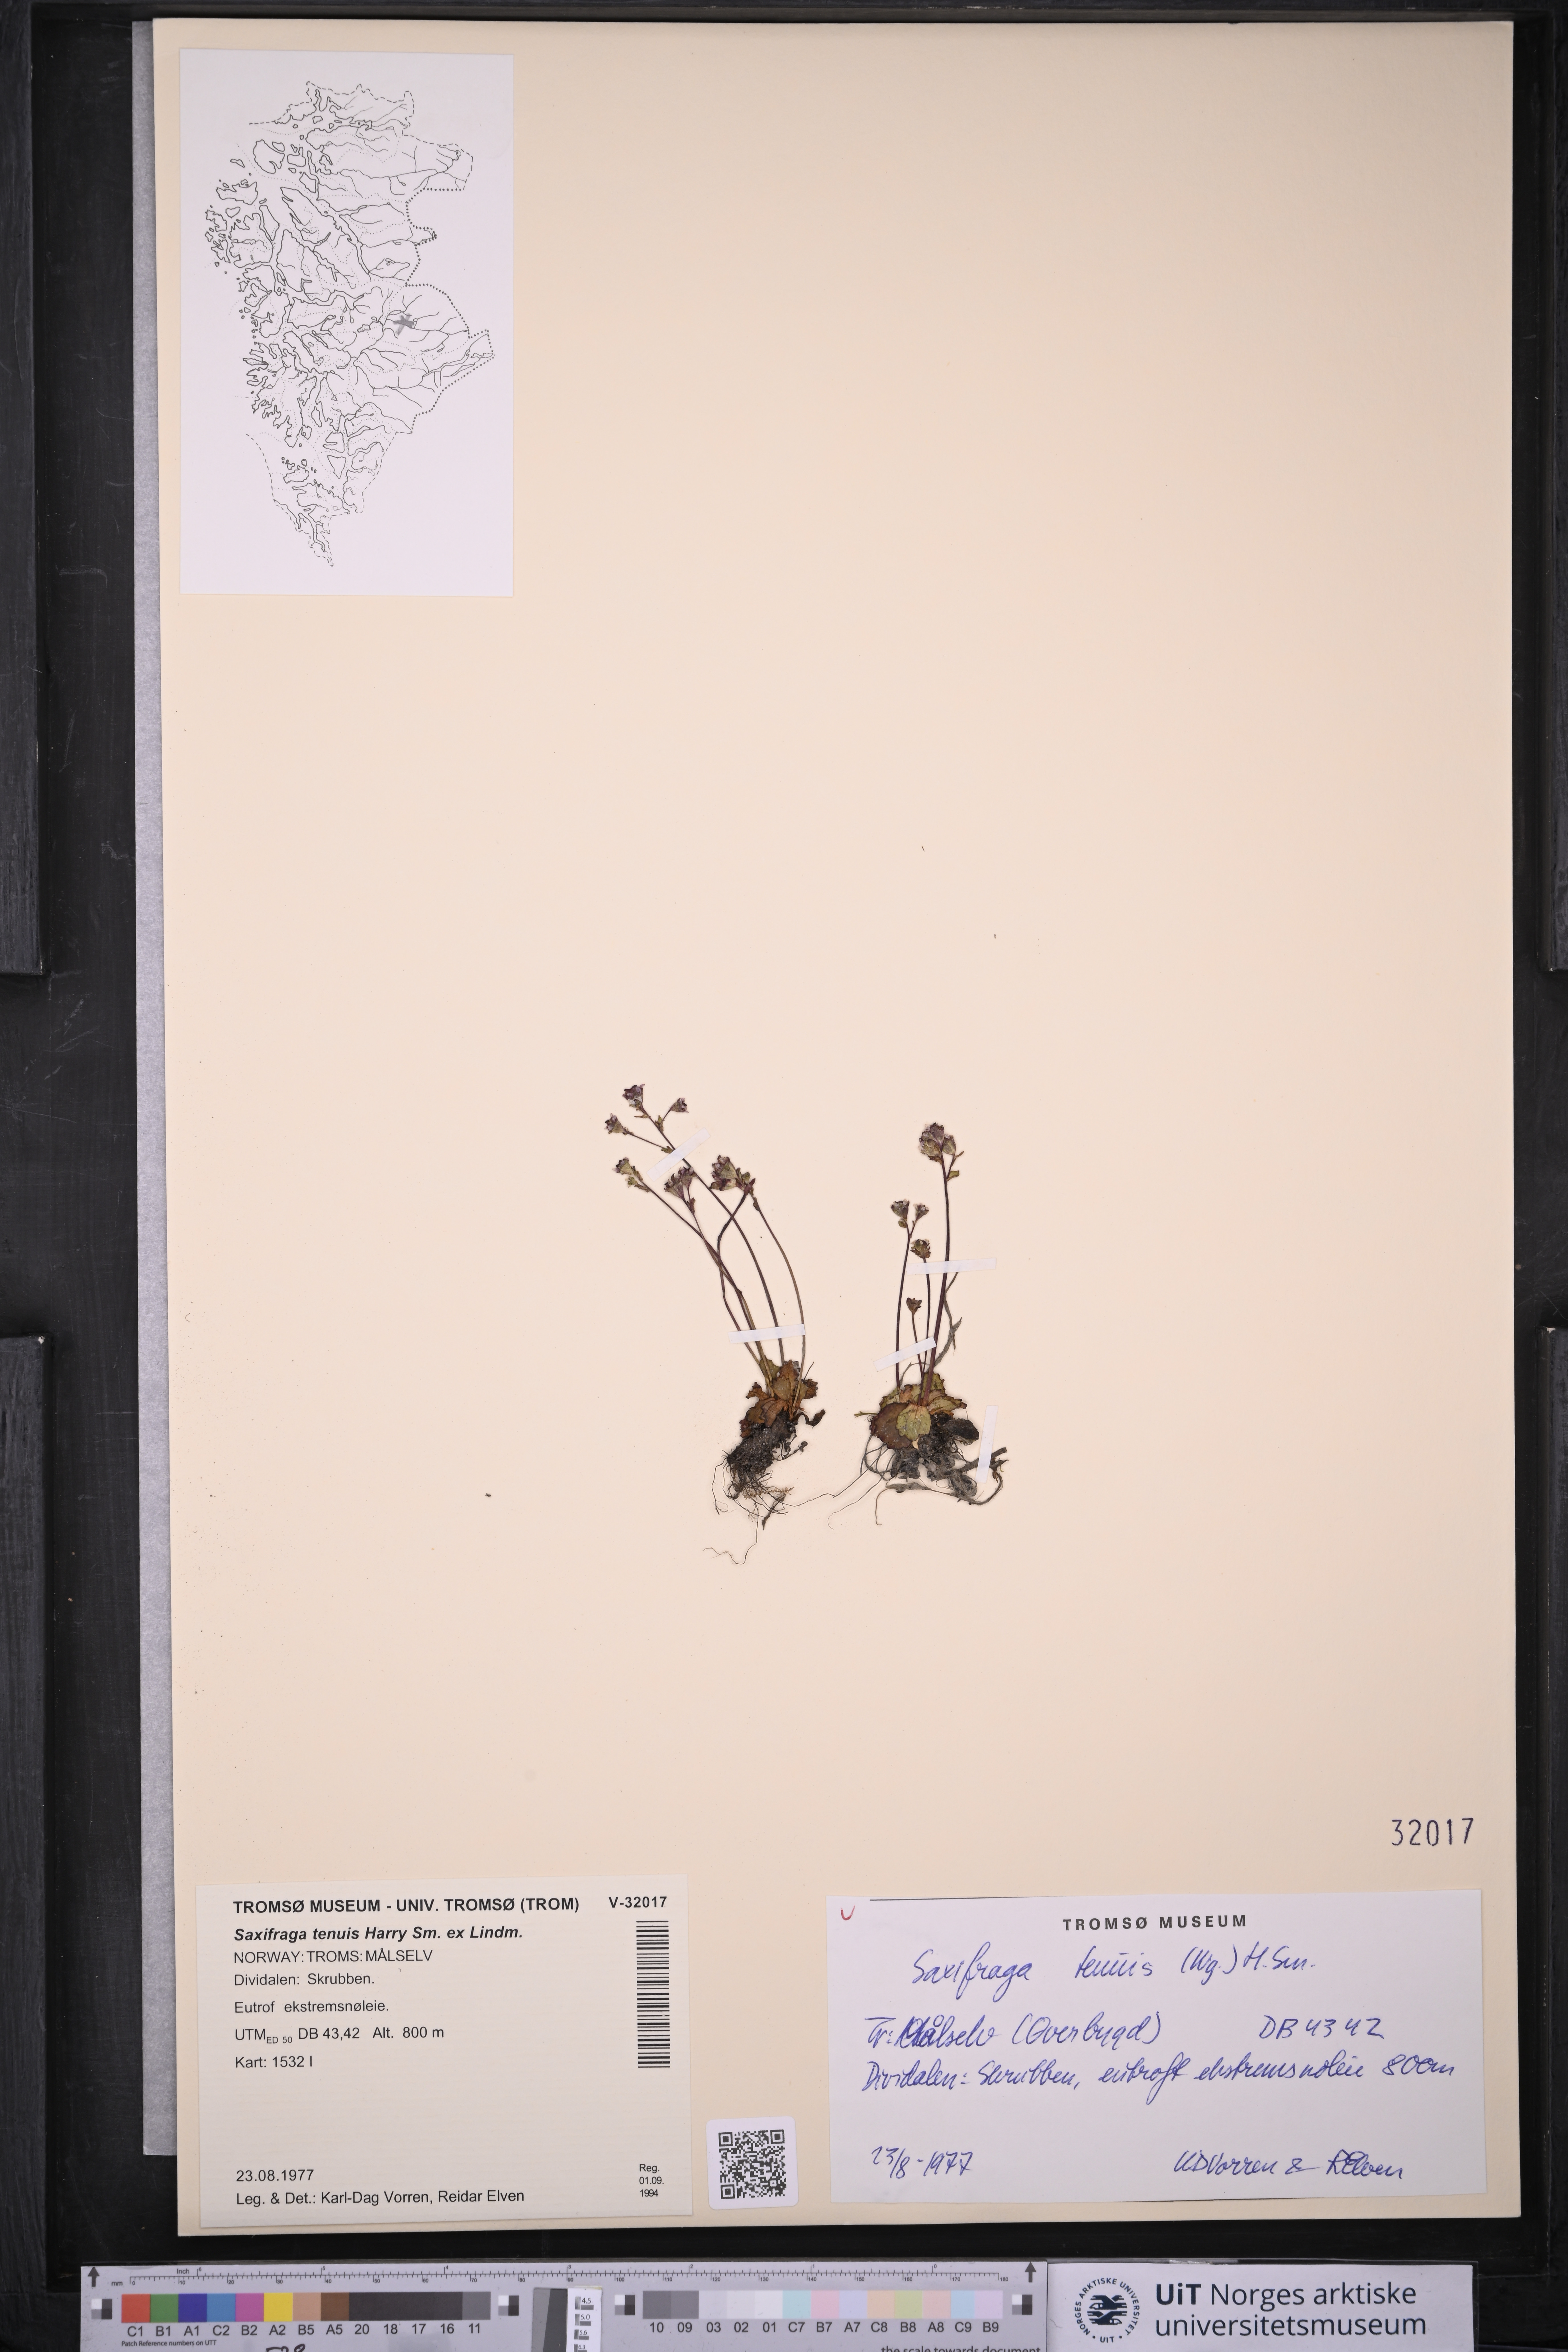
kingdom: Plantae
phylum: Tracheophyta
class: Magnoliopsida
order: Saxifragales
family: Saxifragaceae
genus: Micranthes
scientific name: Micranthes tenuis
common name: Ottertail pass saxifrage
